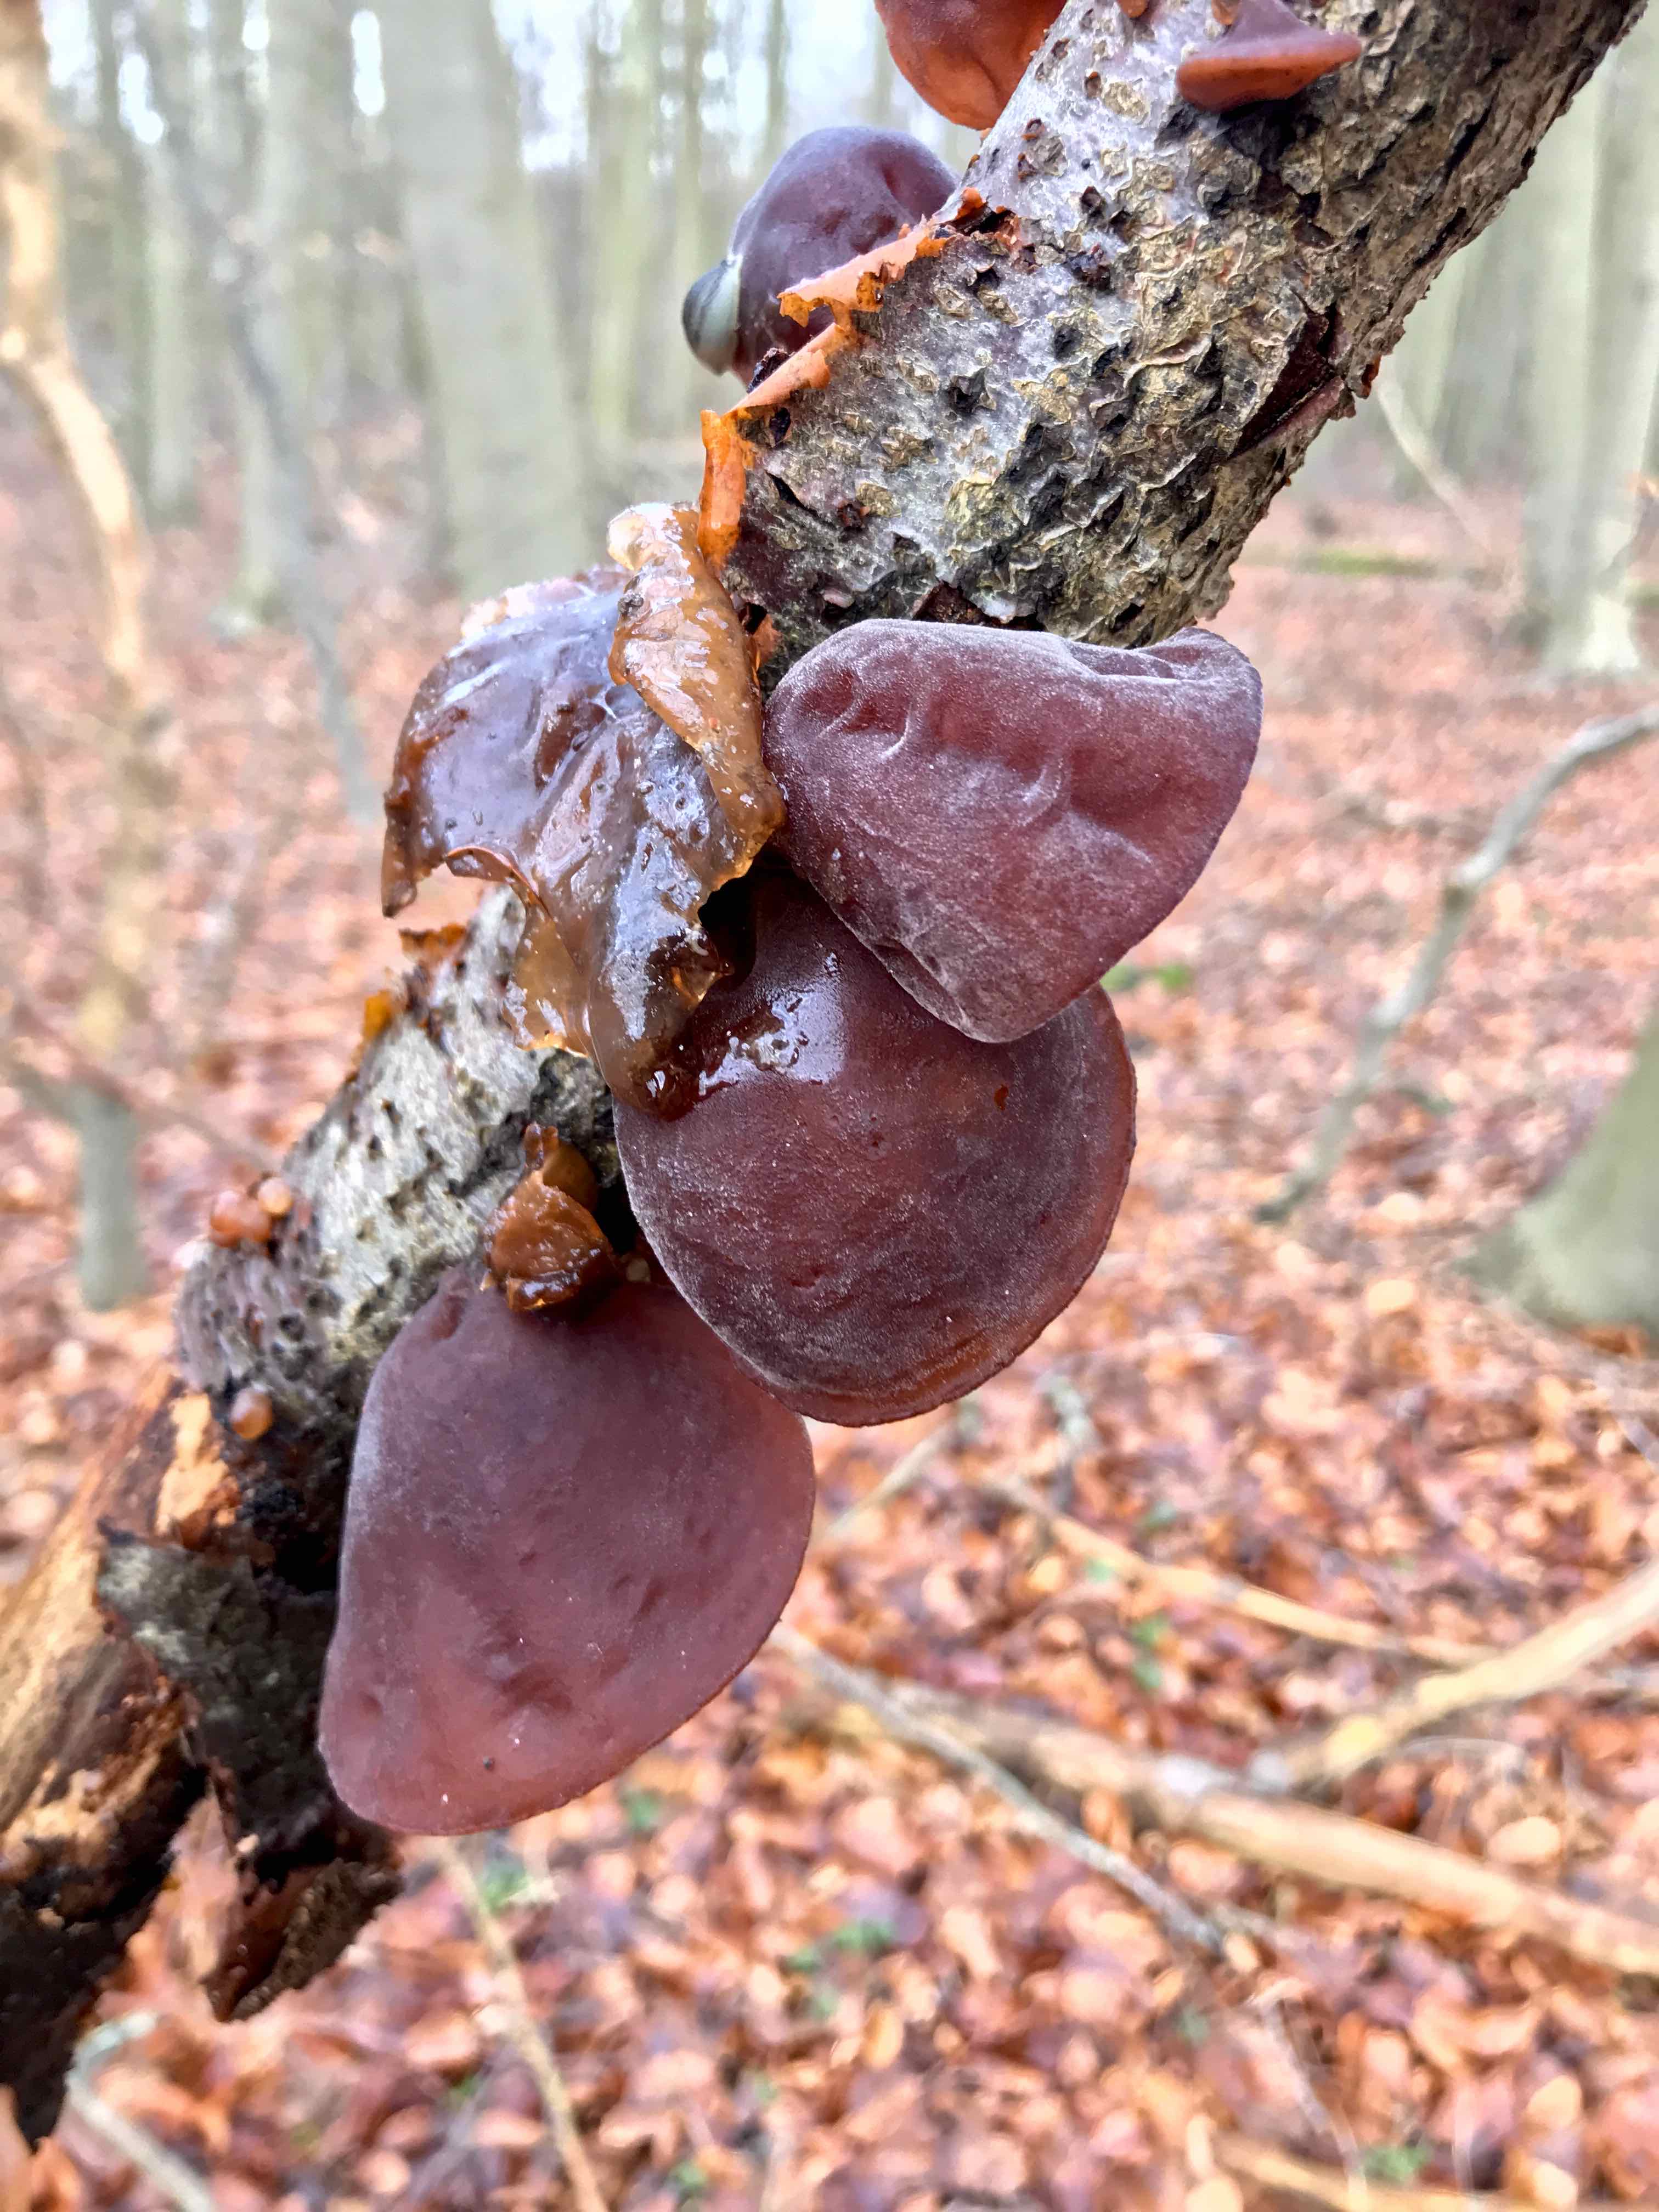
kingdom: Fungi
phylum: Basidiomycota
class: Agaricomycetes
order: Auriculariales
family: Auriculariaceae
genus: Auricularia
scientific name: Auricularia auricula-judae
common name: almindelig judasøre
